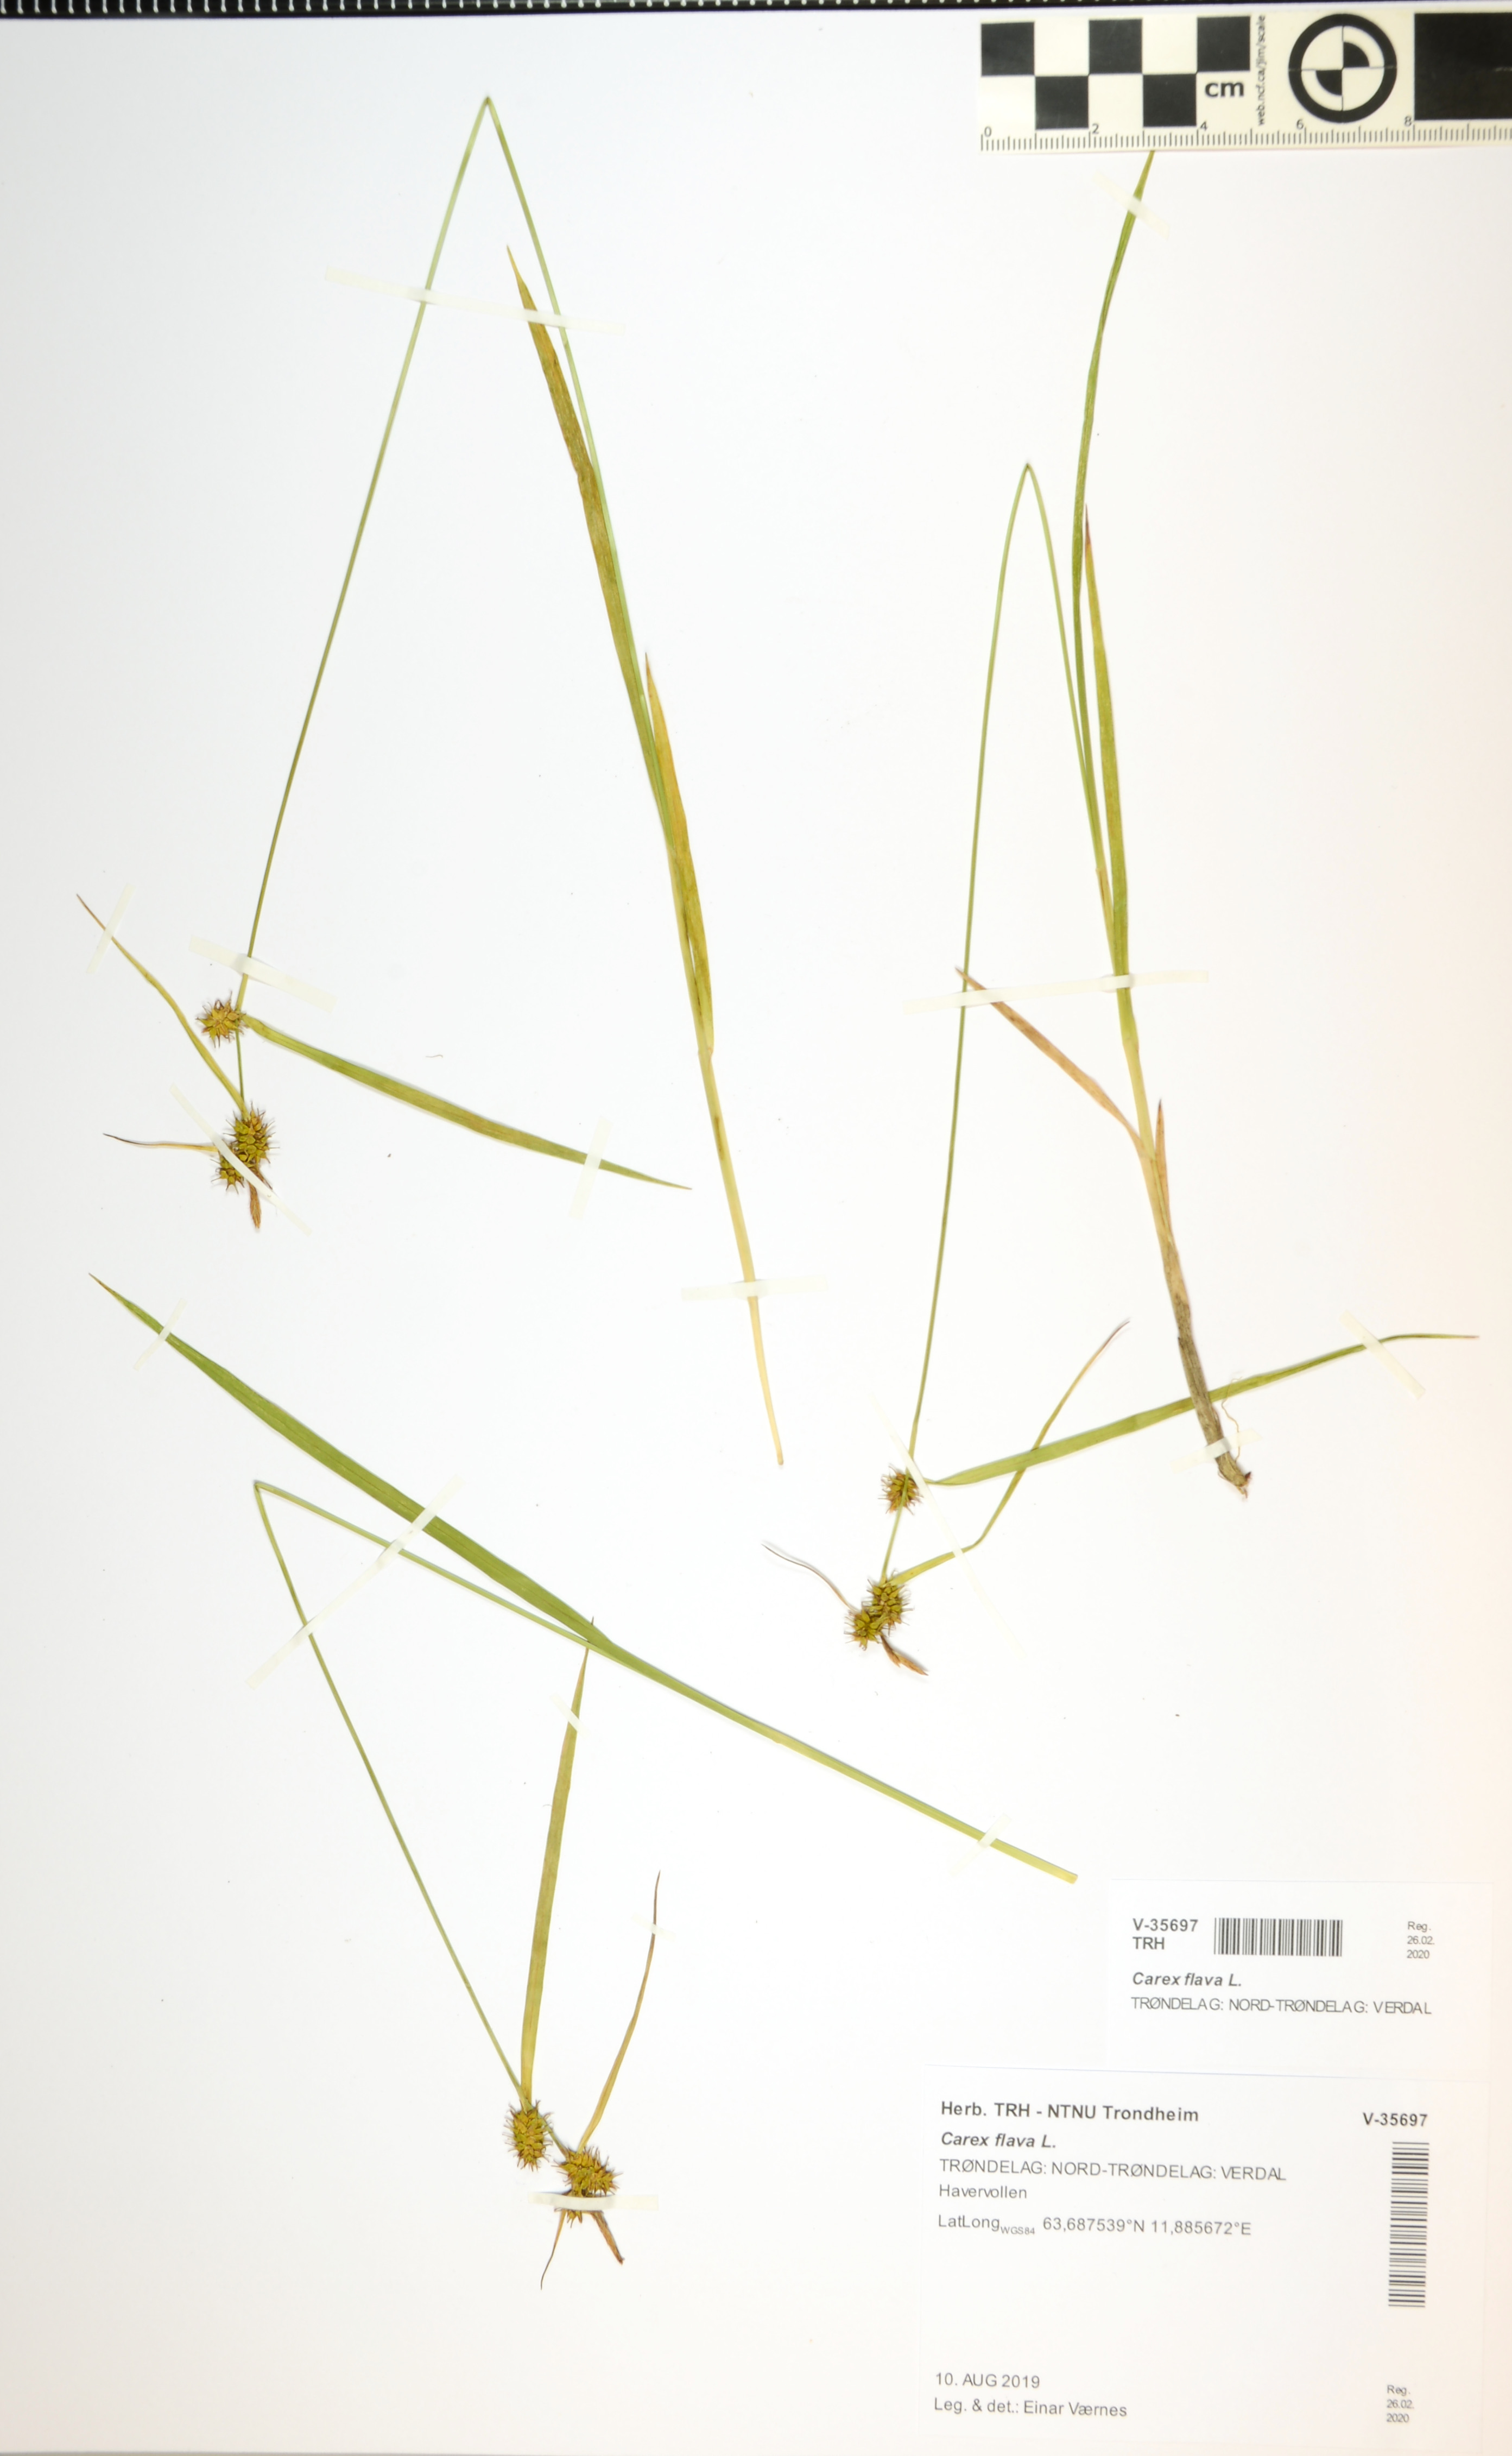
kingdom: Plantae
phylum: Tracheophyta
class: Liliopsida
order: Poales
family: Cyperaceae
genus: Carex
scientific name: Carex flava
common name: Large yellow-sedge
